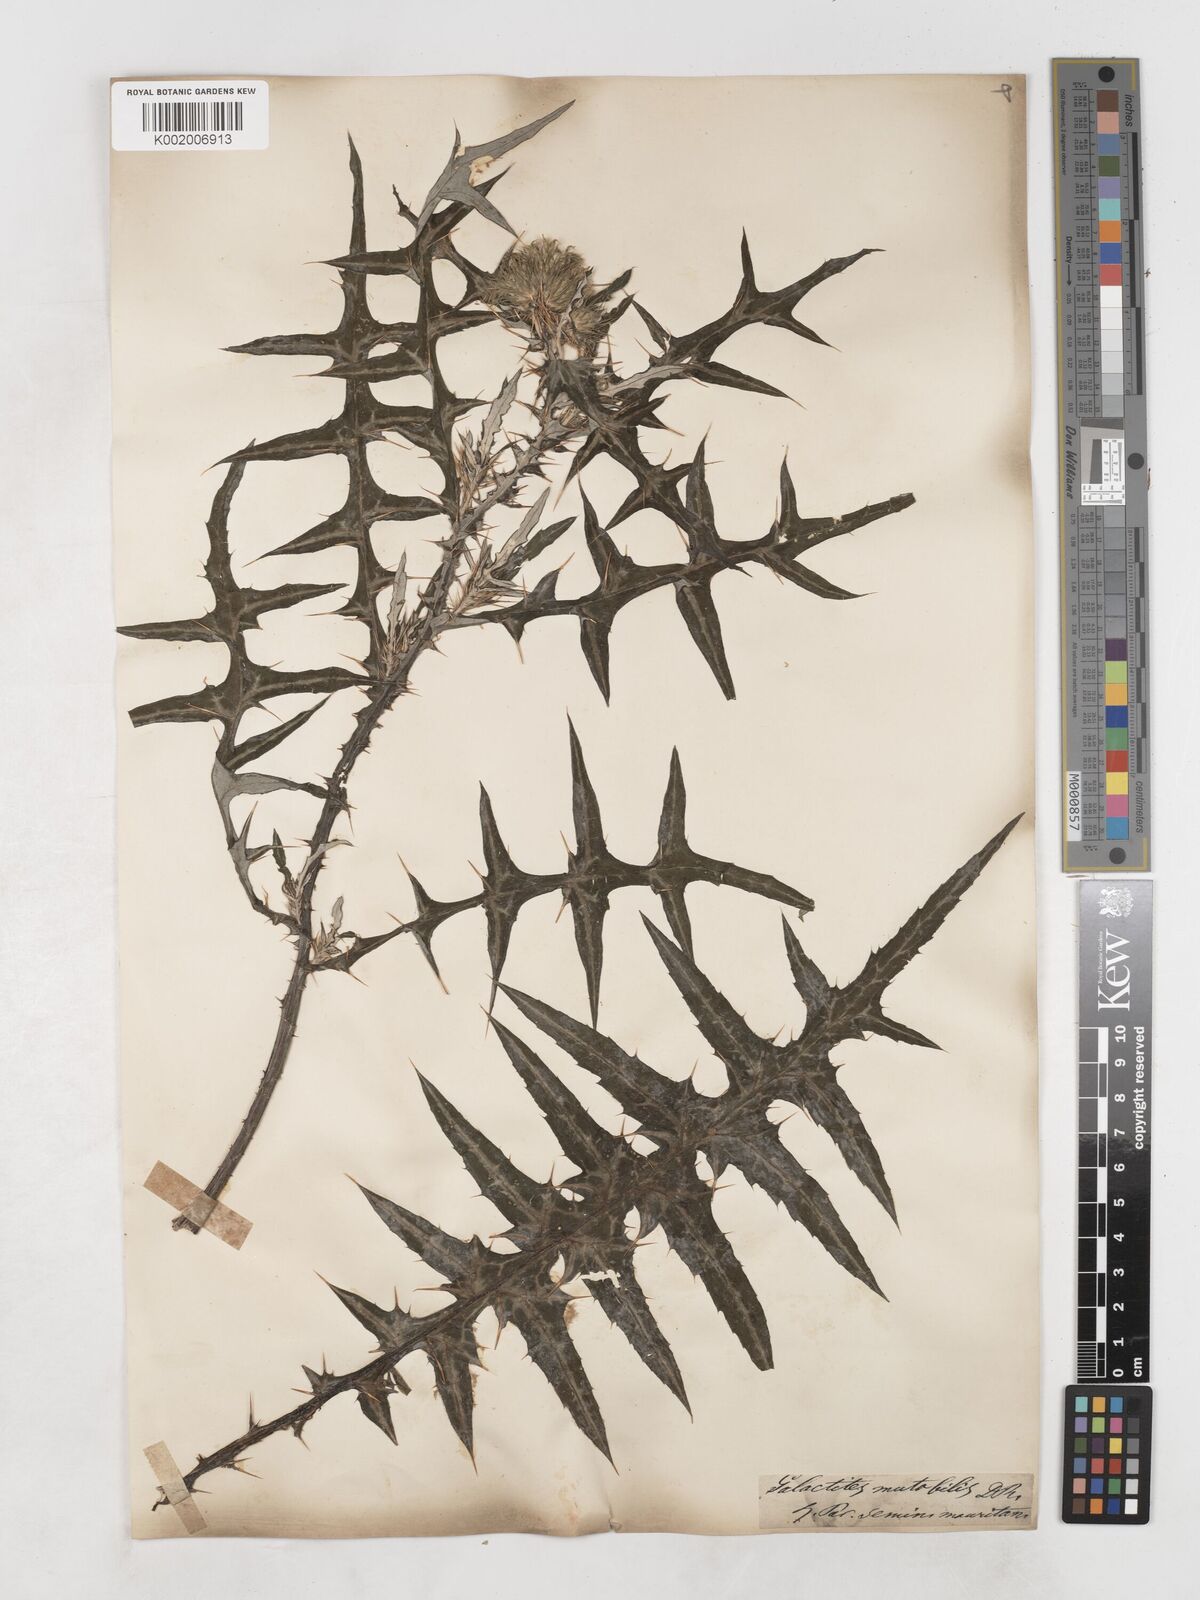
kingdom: Plantae
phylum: Tracheophyta
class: Magnoliopsida
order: Asterales
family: Asteraceae
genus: Galactites
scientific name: Galactites
